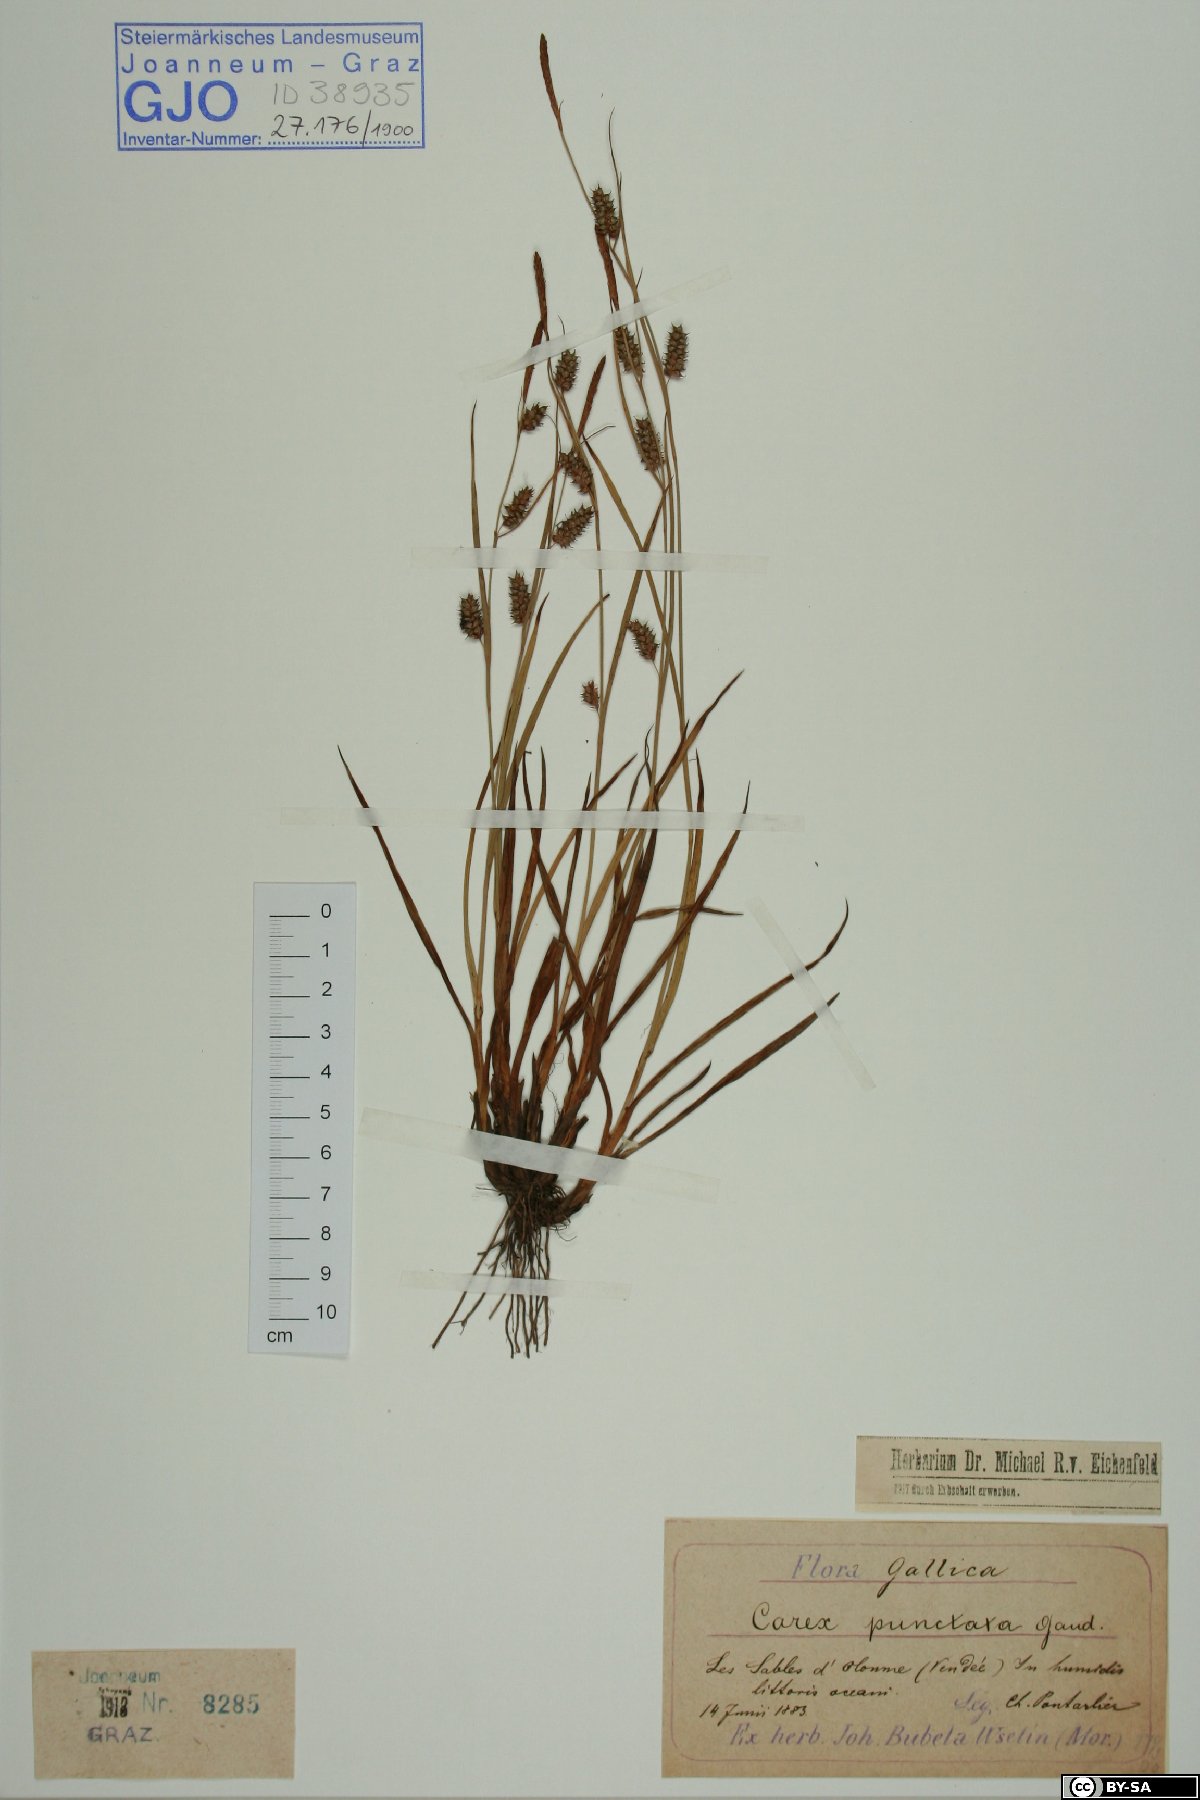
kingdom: Plantae
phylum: Tracheophyta
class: Liliopsida
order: Poales
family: Cyperaceae
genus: Carex
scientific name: Carex punctata
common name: Dotted sedge
